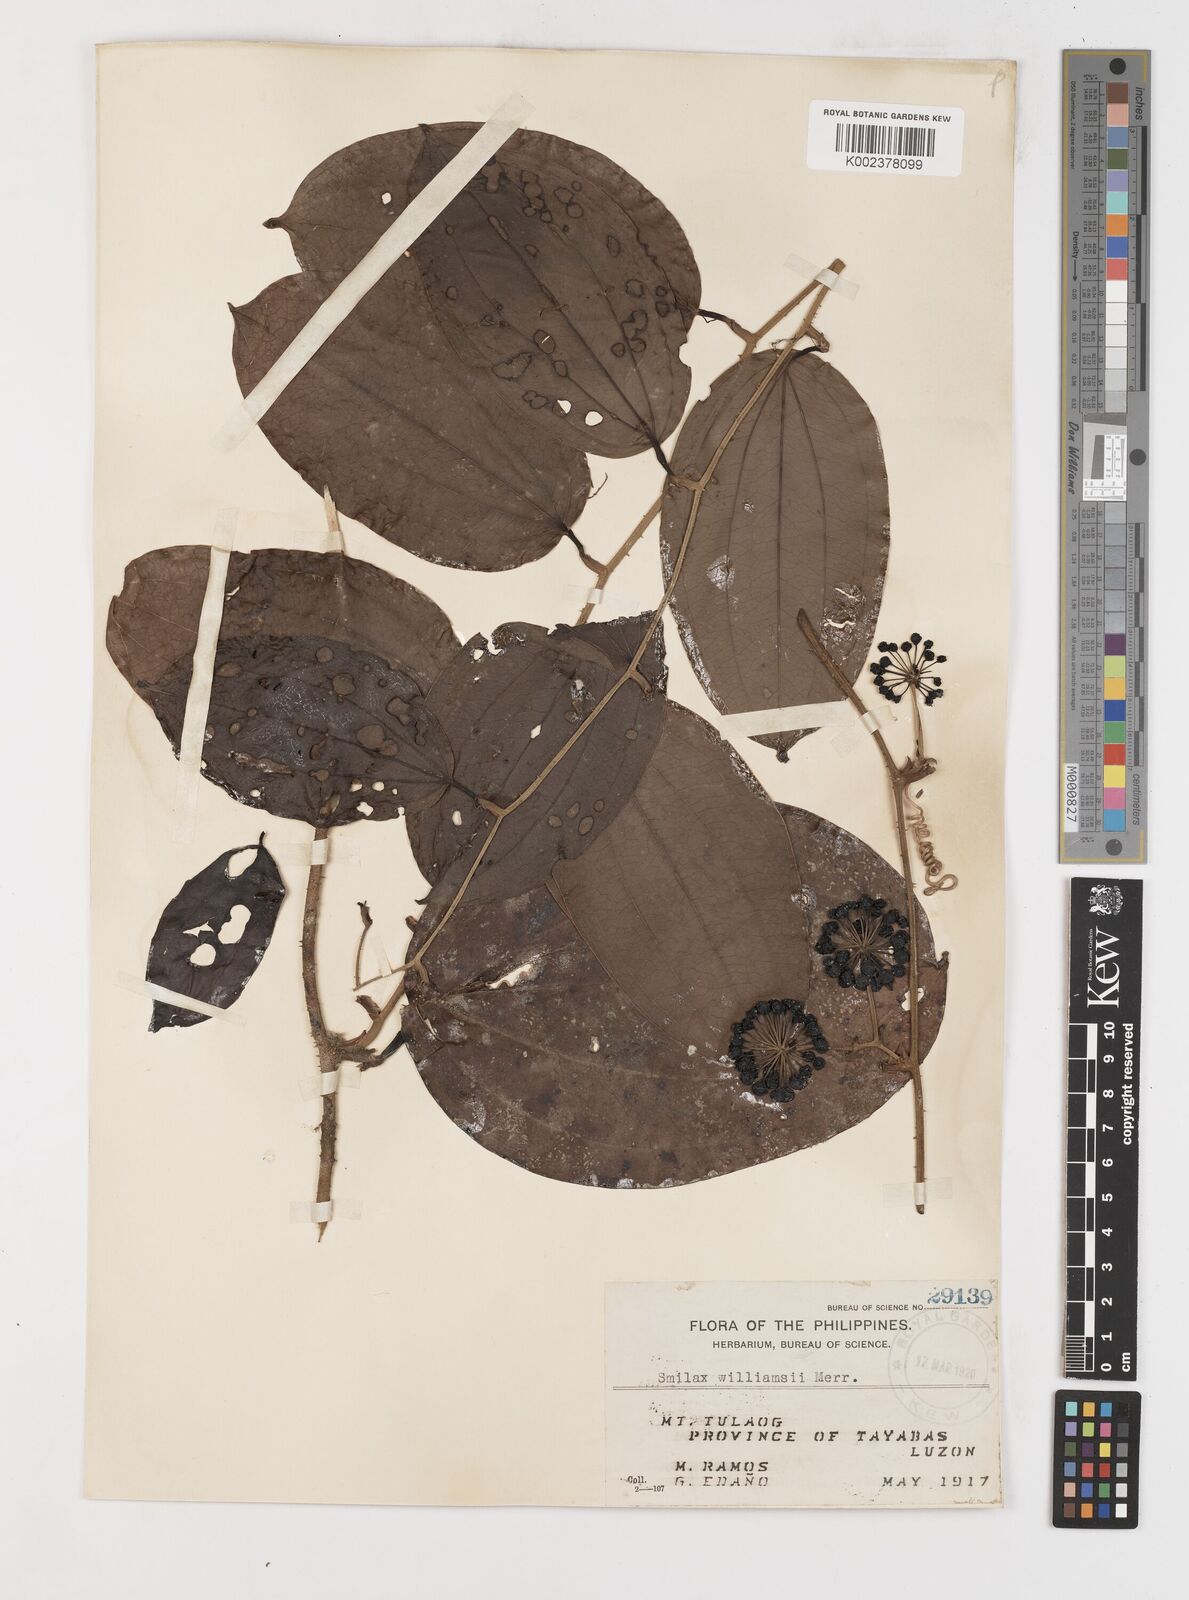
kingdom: Plantae
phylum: Tracheophyta
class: Liliopsida
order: Liliales
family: Smilacaceae
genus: Smilax
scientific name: Smilax williamsii
